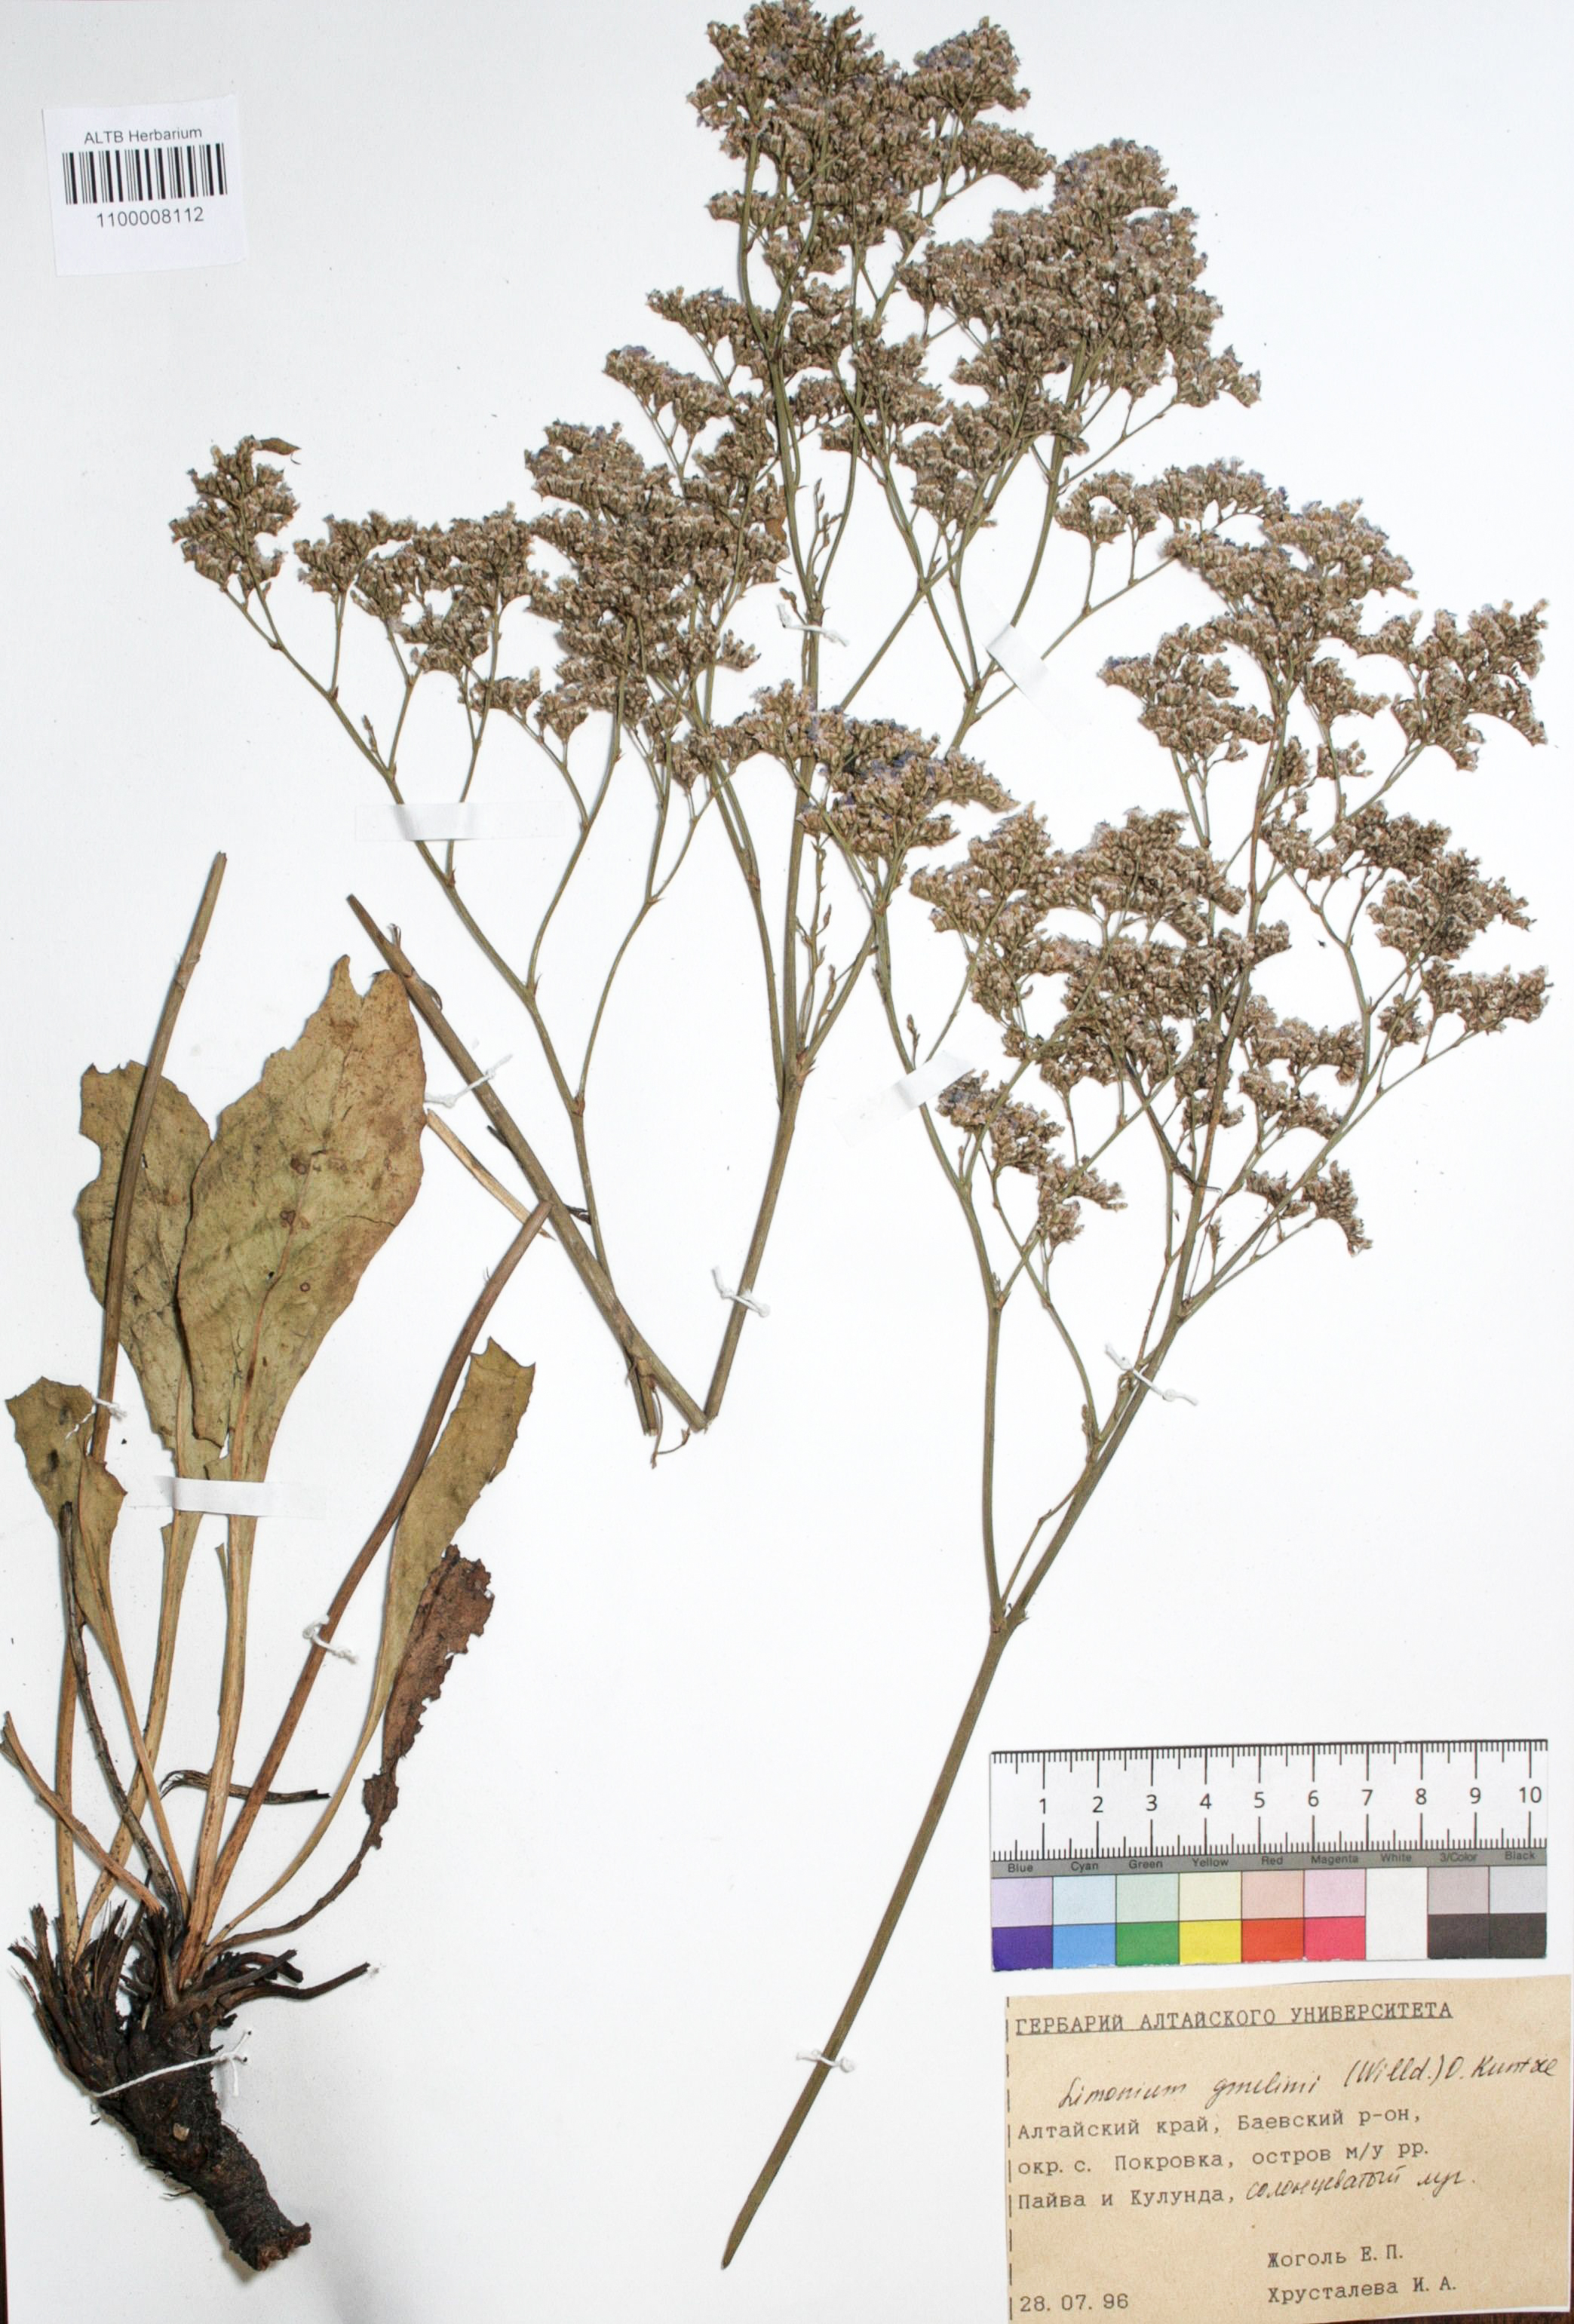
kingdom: Plantae
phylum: Tracheophyta
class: Magnoliopsida
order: Caryophyllales
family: Plumbaginaceae
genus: Limonium
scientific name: Limonium gmelini
